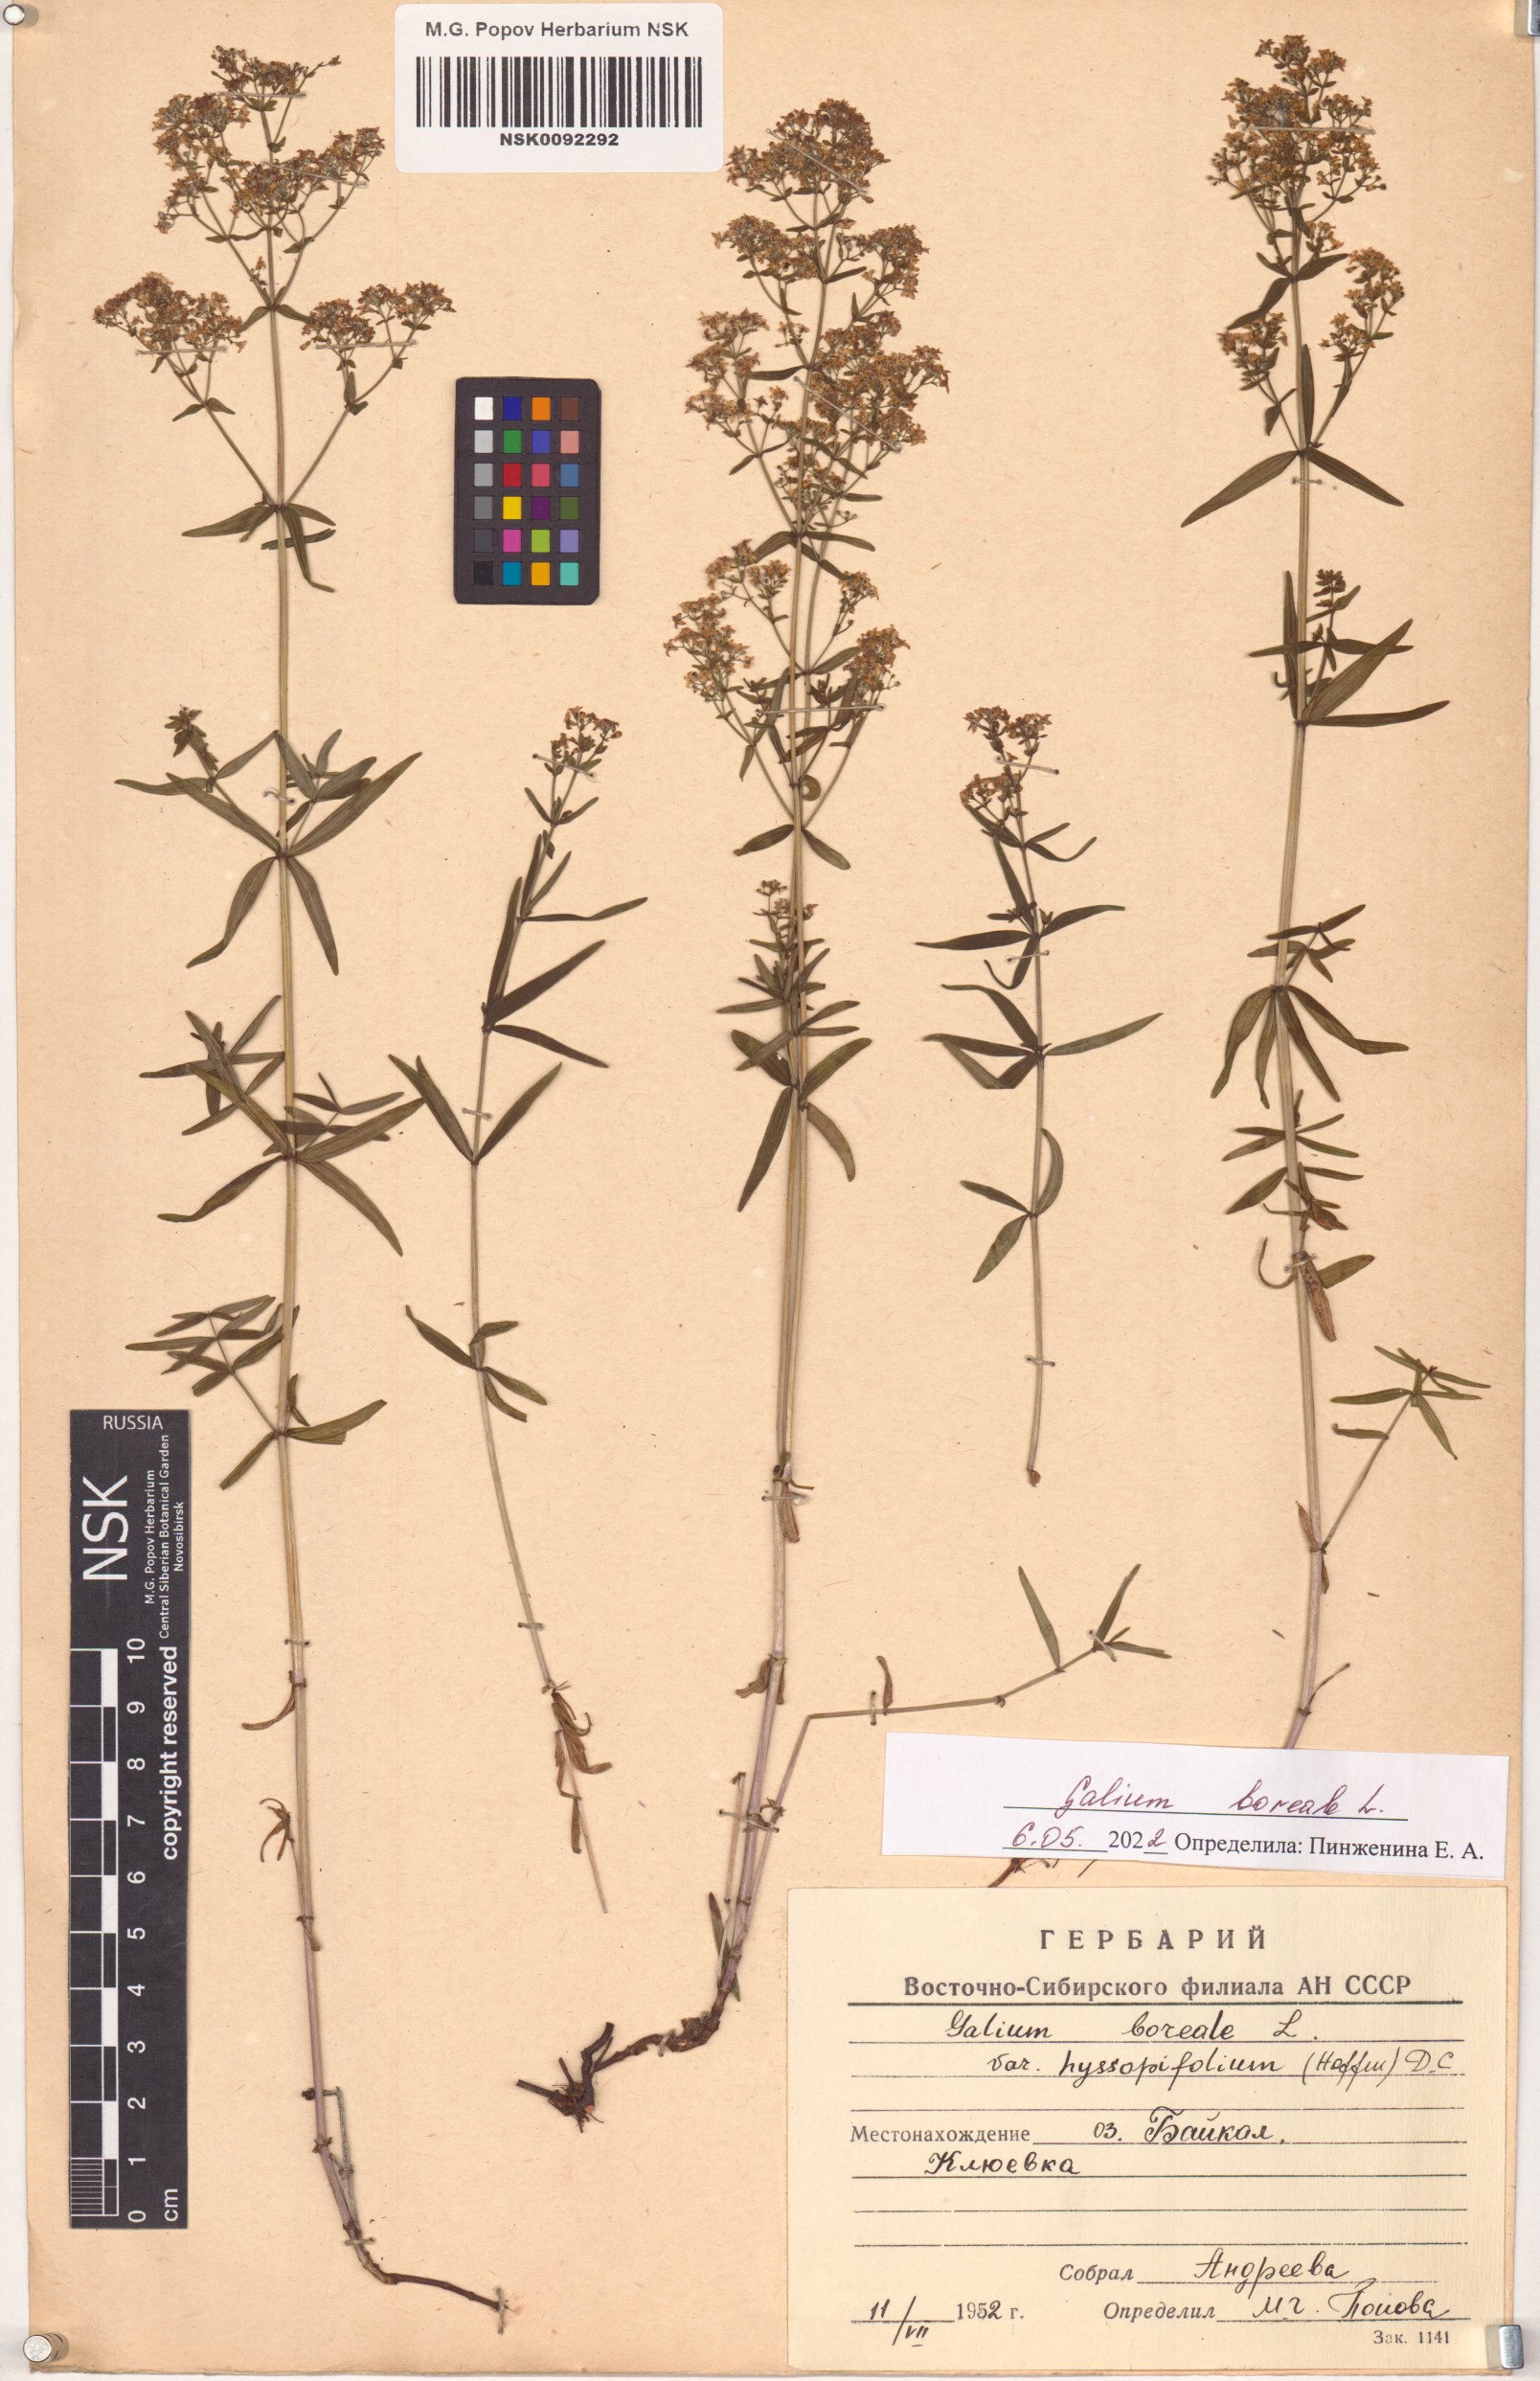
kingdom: Plantae
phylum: Tracheophyta
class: Magnoliopsida
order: Gentianales
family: Rubiaceae
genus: Galium
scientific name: Galium boreale
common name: Northern bedstraw
